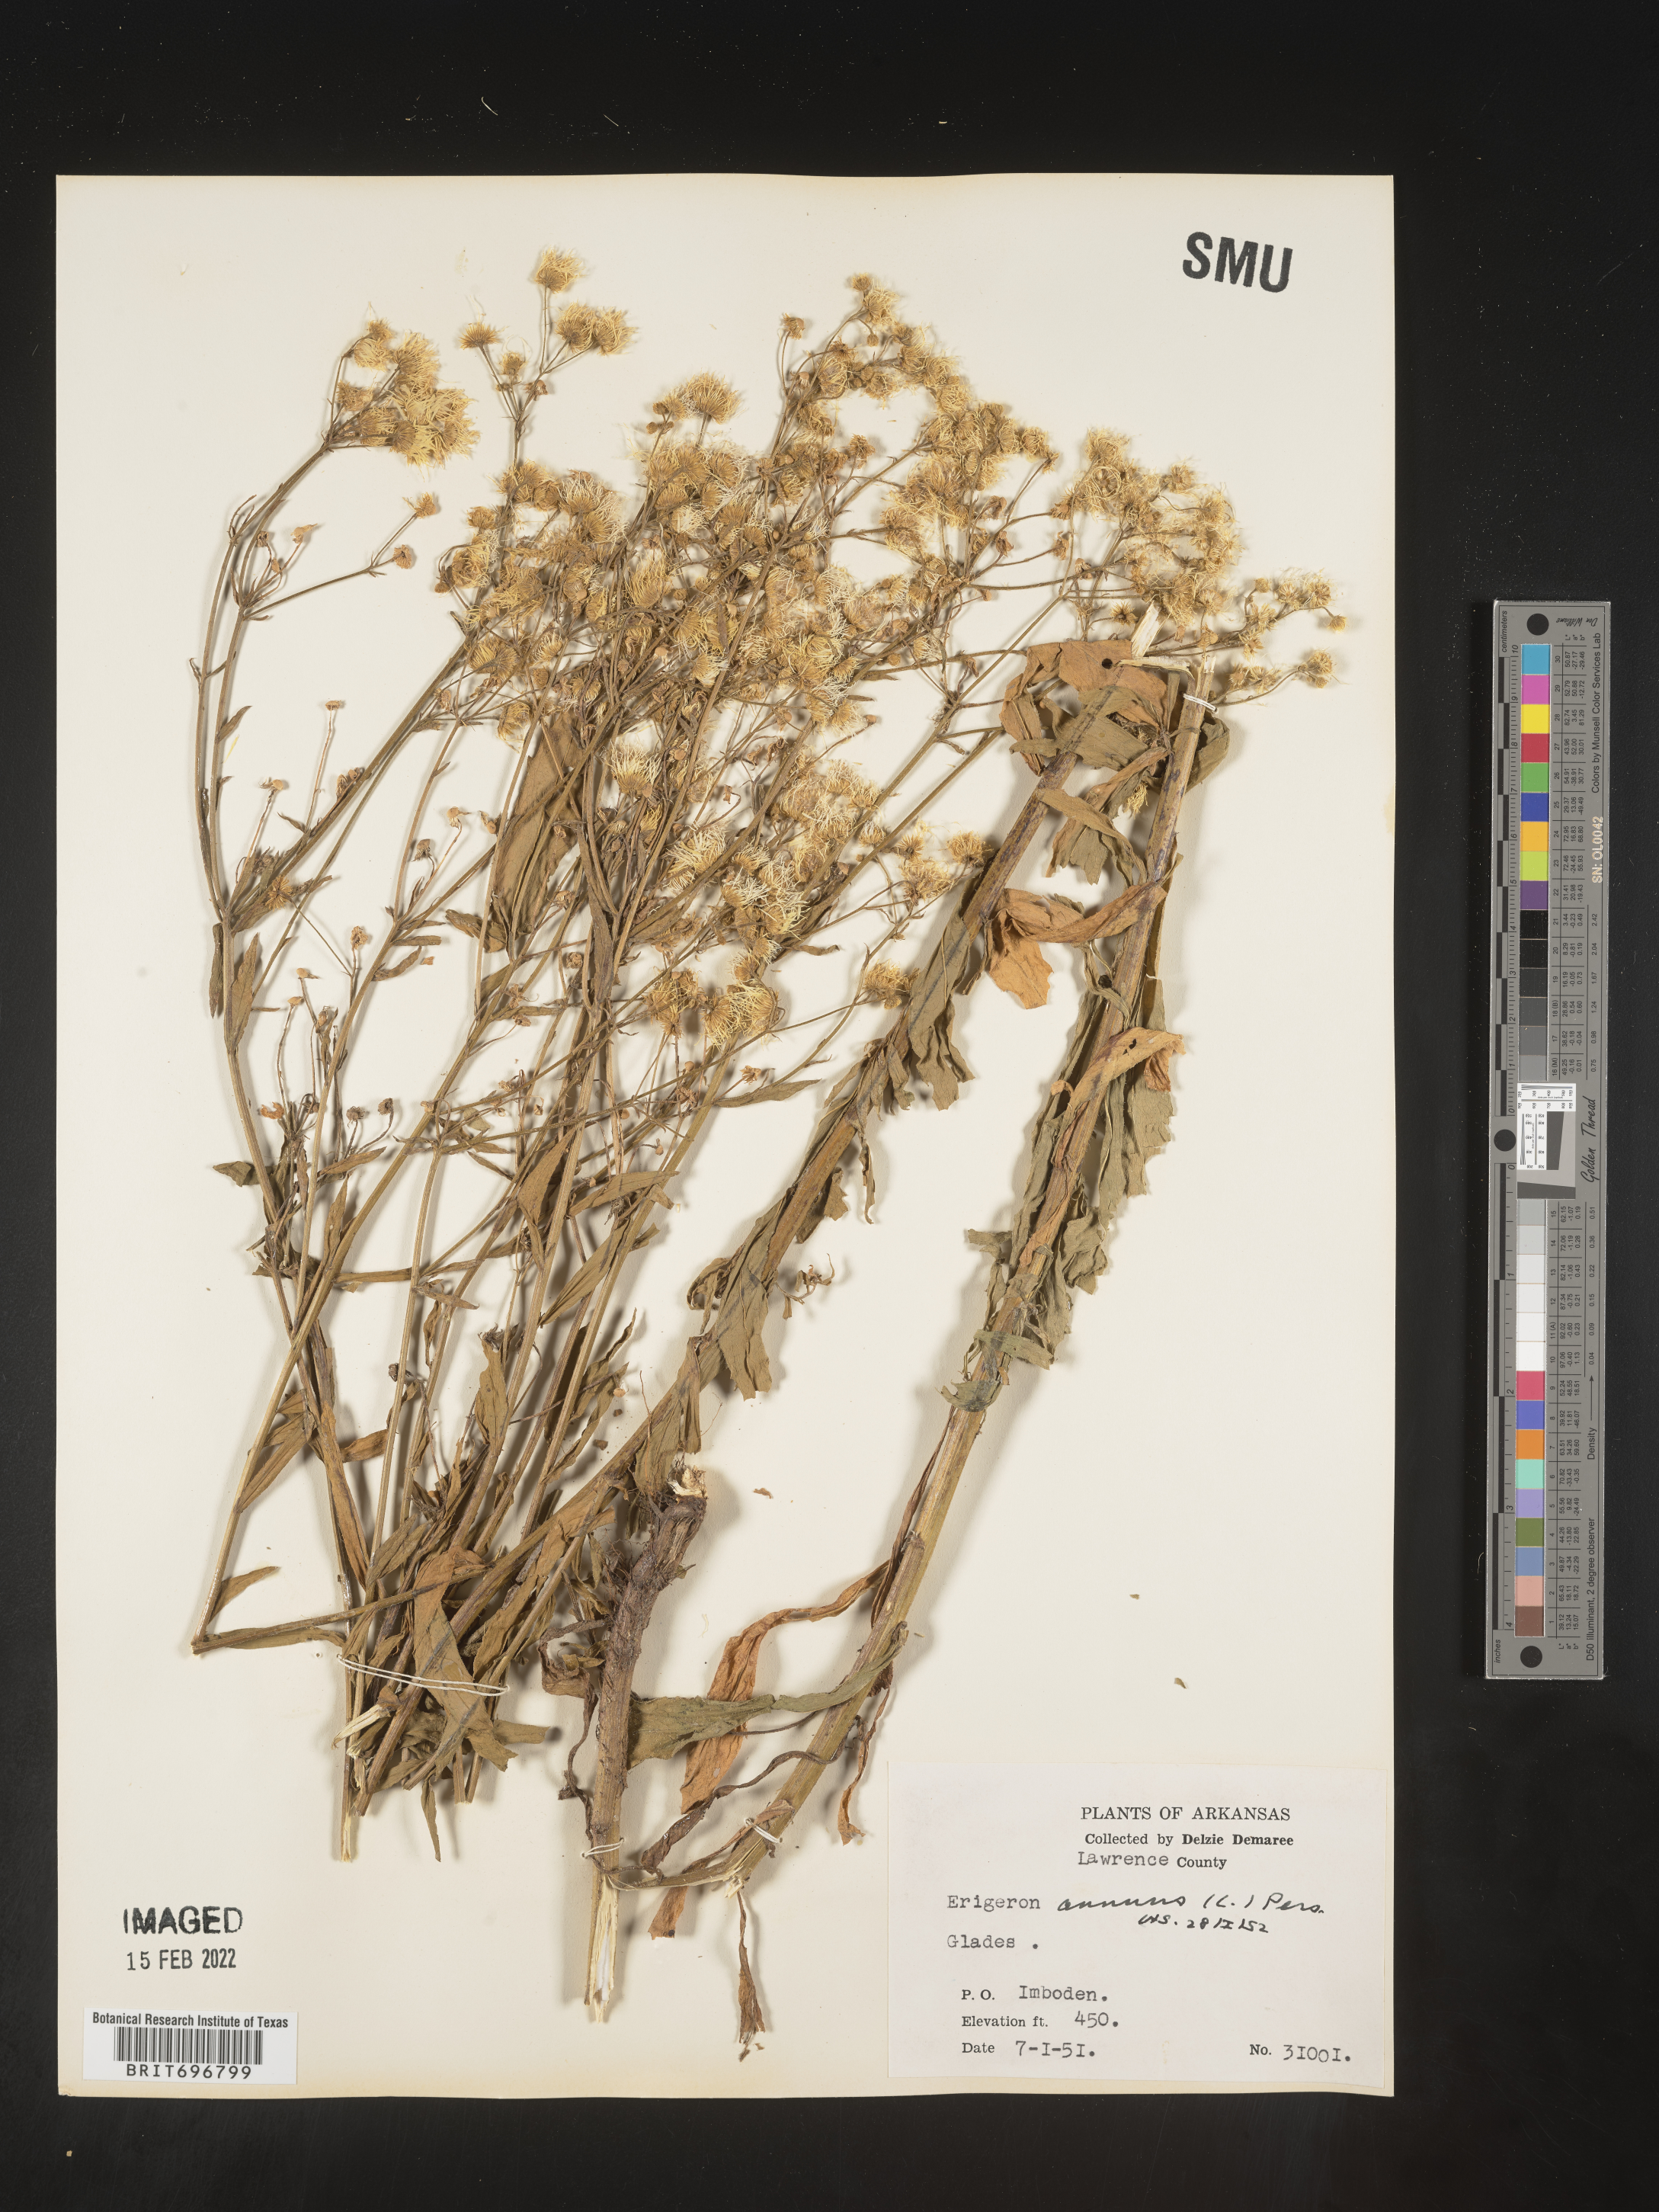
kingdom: Plantae
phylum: Tracheophyta
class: Magnoliopsida
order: Asterales
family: Asteraceae
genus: Erigeron
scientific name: Erigeron annuus
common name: Tall fleabane
